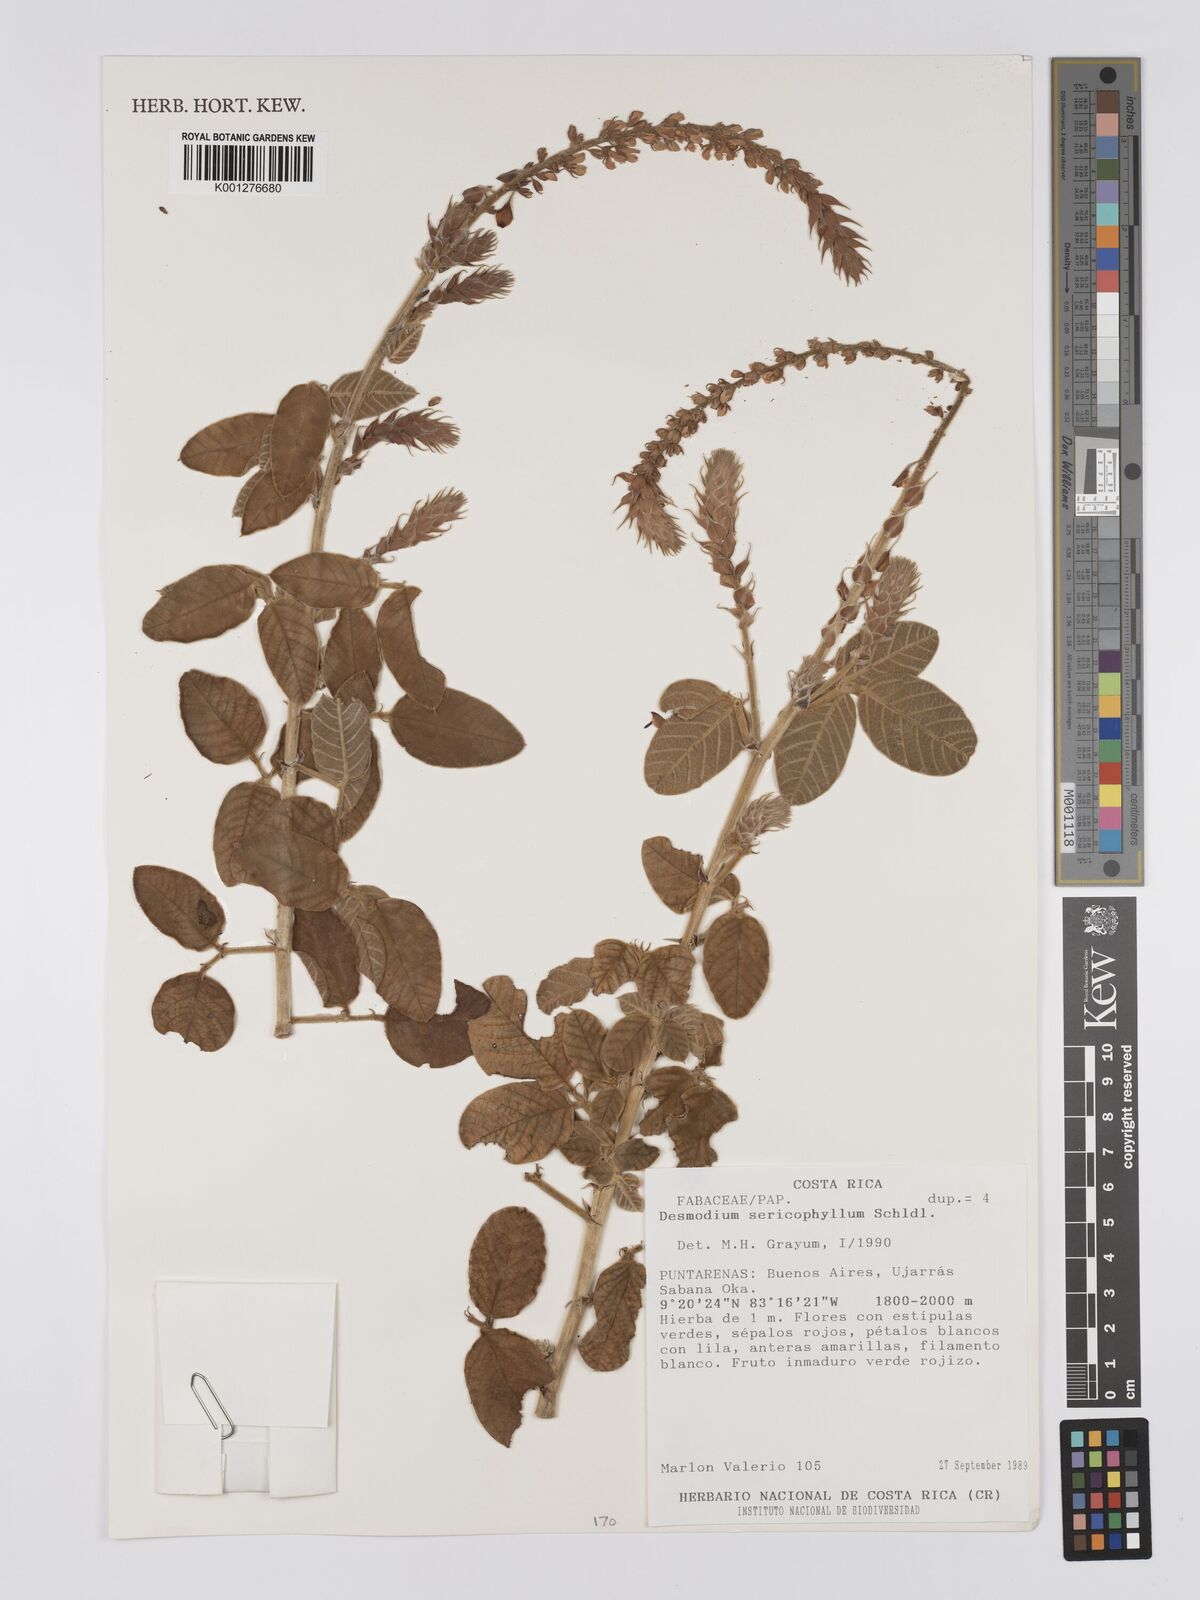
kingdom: Plantae
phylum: Tracheophyta
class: Magnoliopsida
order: Fabales
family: Fabaceae
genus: Desmodium
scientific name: Desmodium sericophyllum
